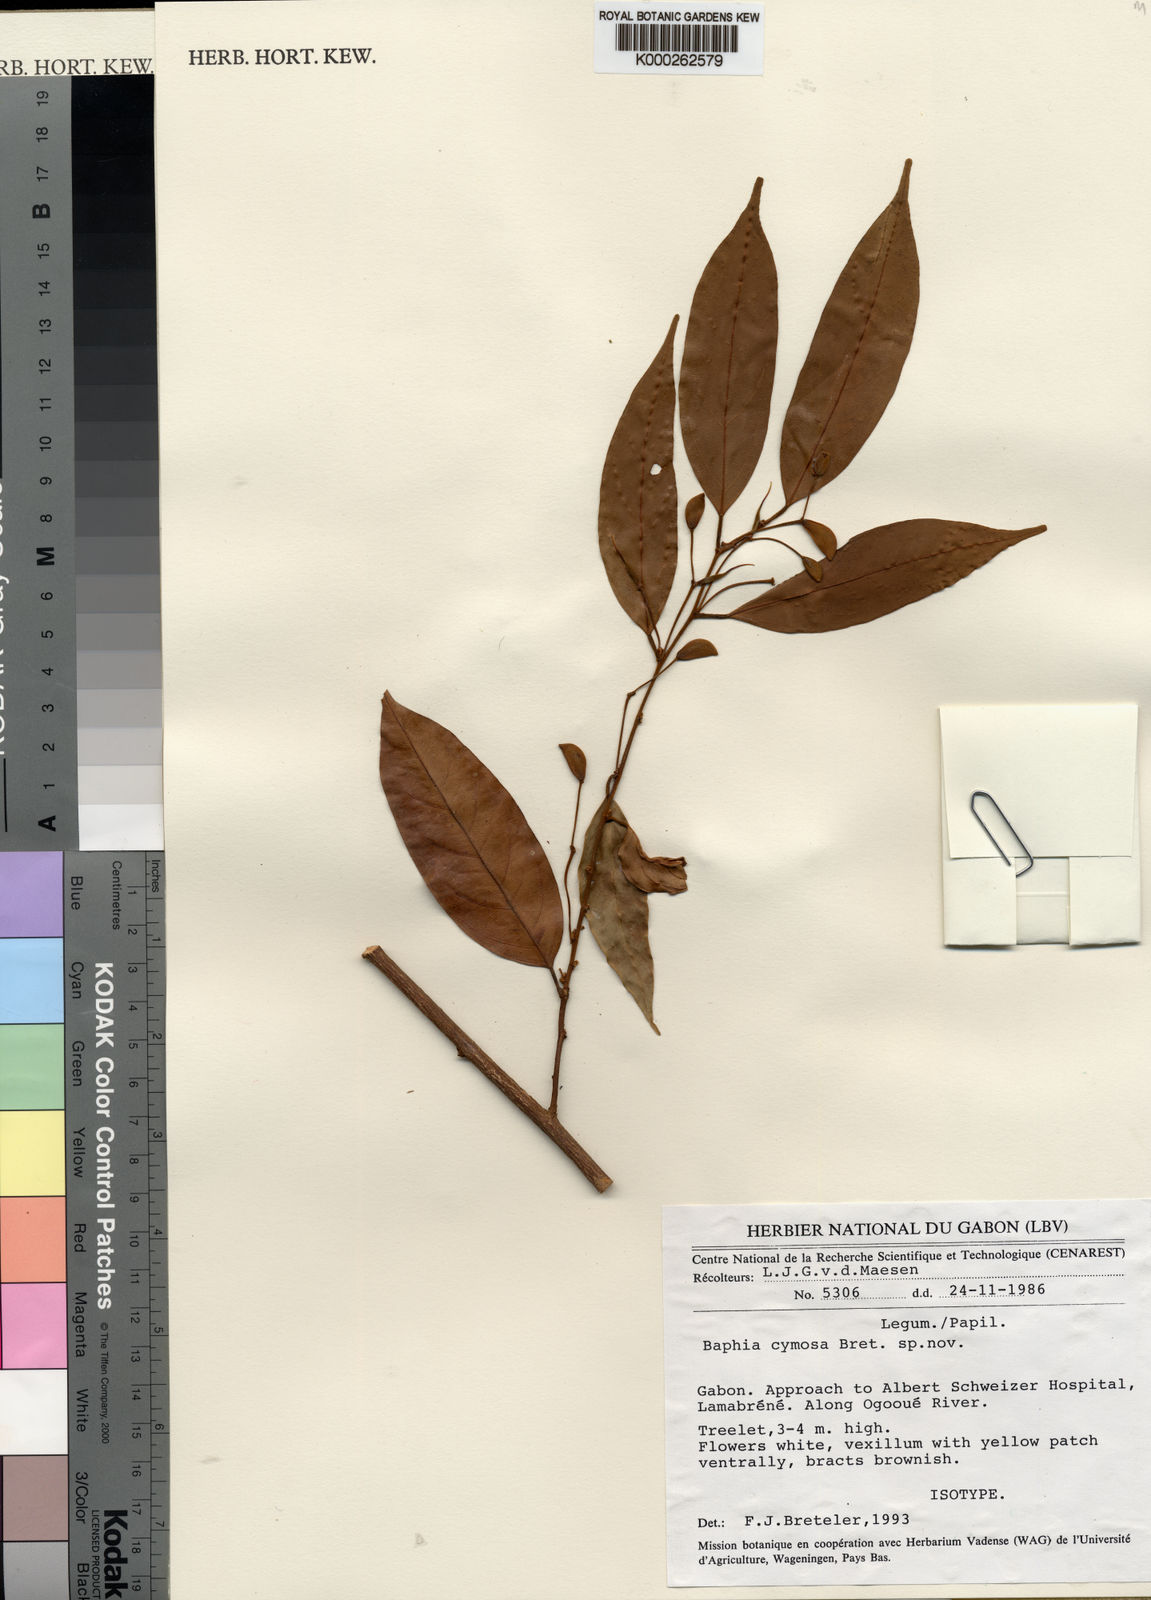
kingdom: Plantae
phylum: Tracheophyta
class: Magnoliopsida
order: Fabales
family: Fabaceae
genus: Baphia
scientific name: Baphia cymosa
